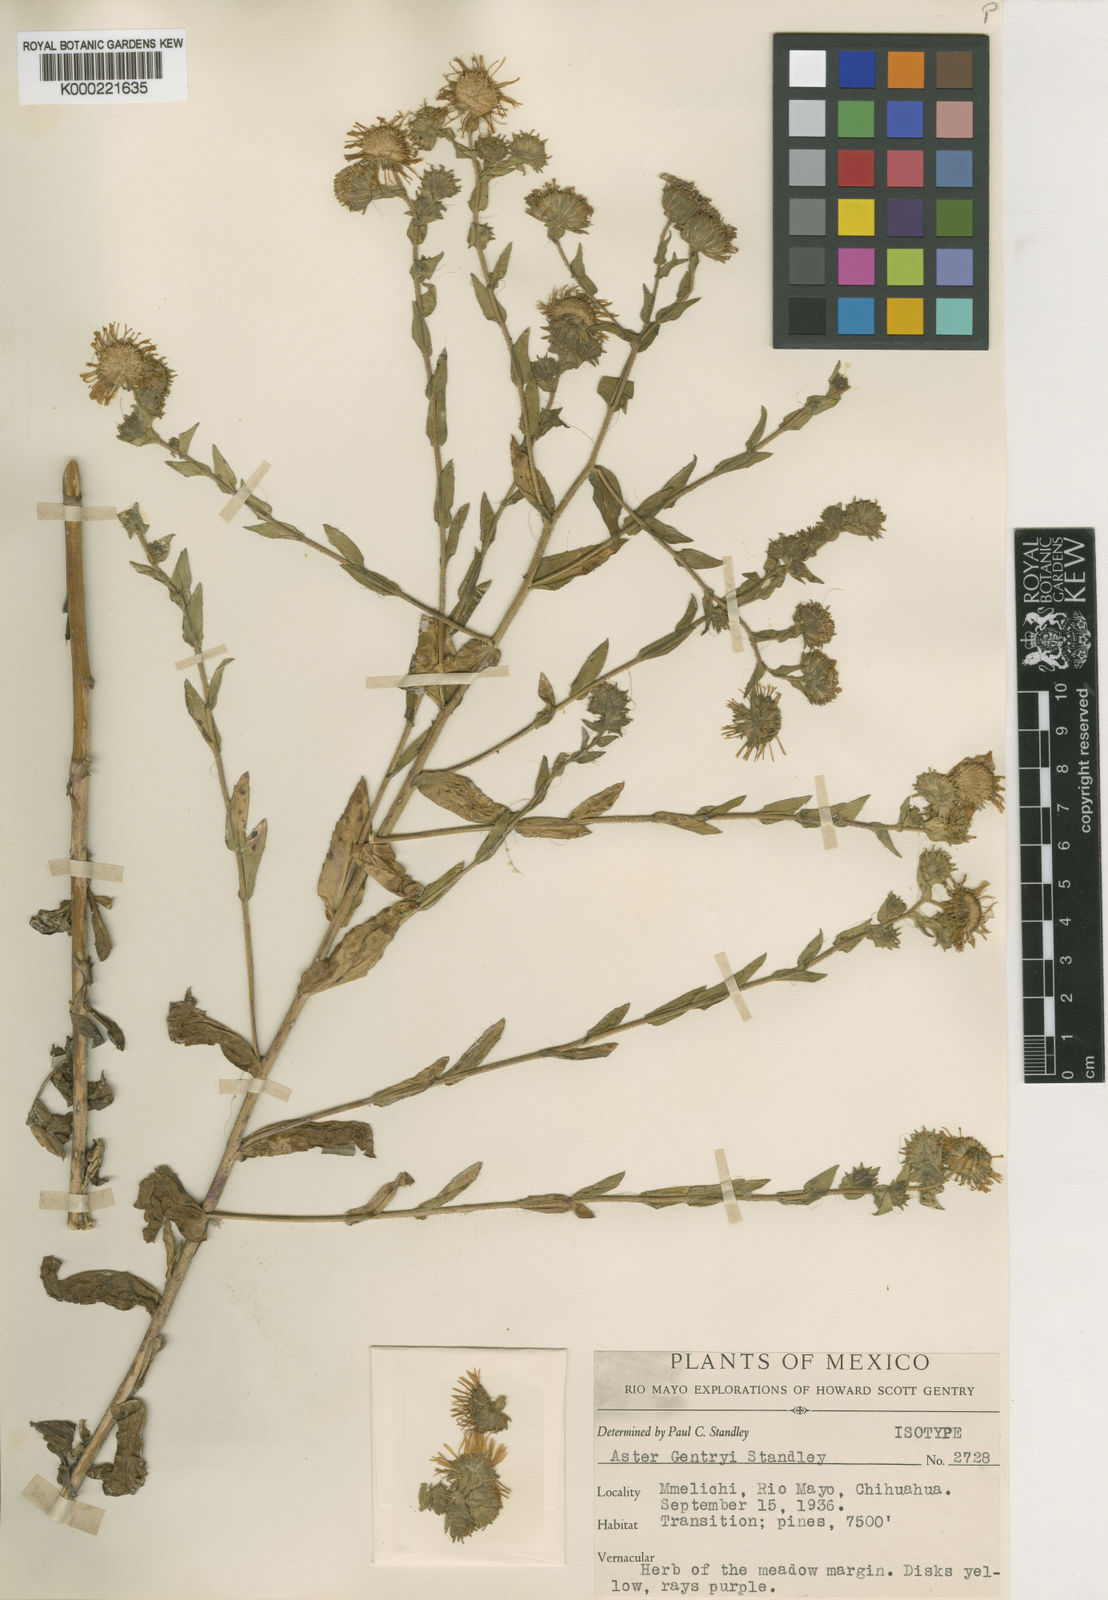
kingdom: Plantae
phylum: Tracheophyta
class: Magnoliopsida
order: Asterales
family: Asteraceae
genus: Psilactis
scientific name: Psilactis gentryi
